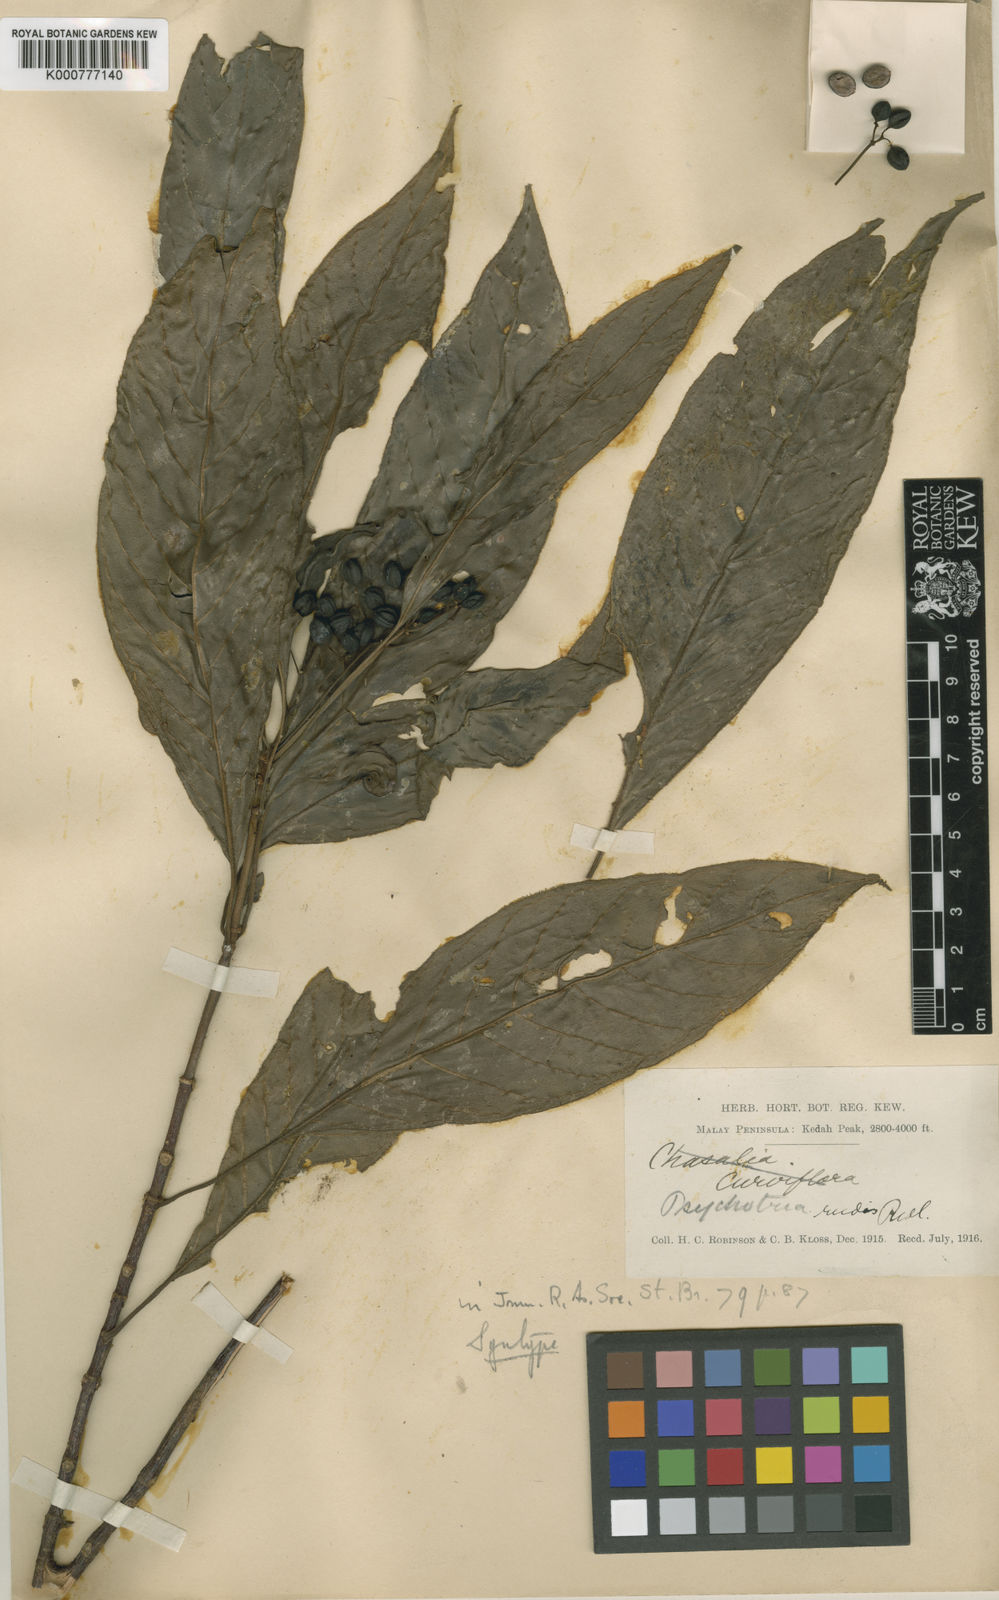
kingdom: Plantae
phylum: Tracheophyta
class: Magnoliopsida
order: Gentianales
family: Rubiaceae
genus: Psychotria
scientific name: Psychotria rudis
